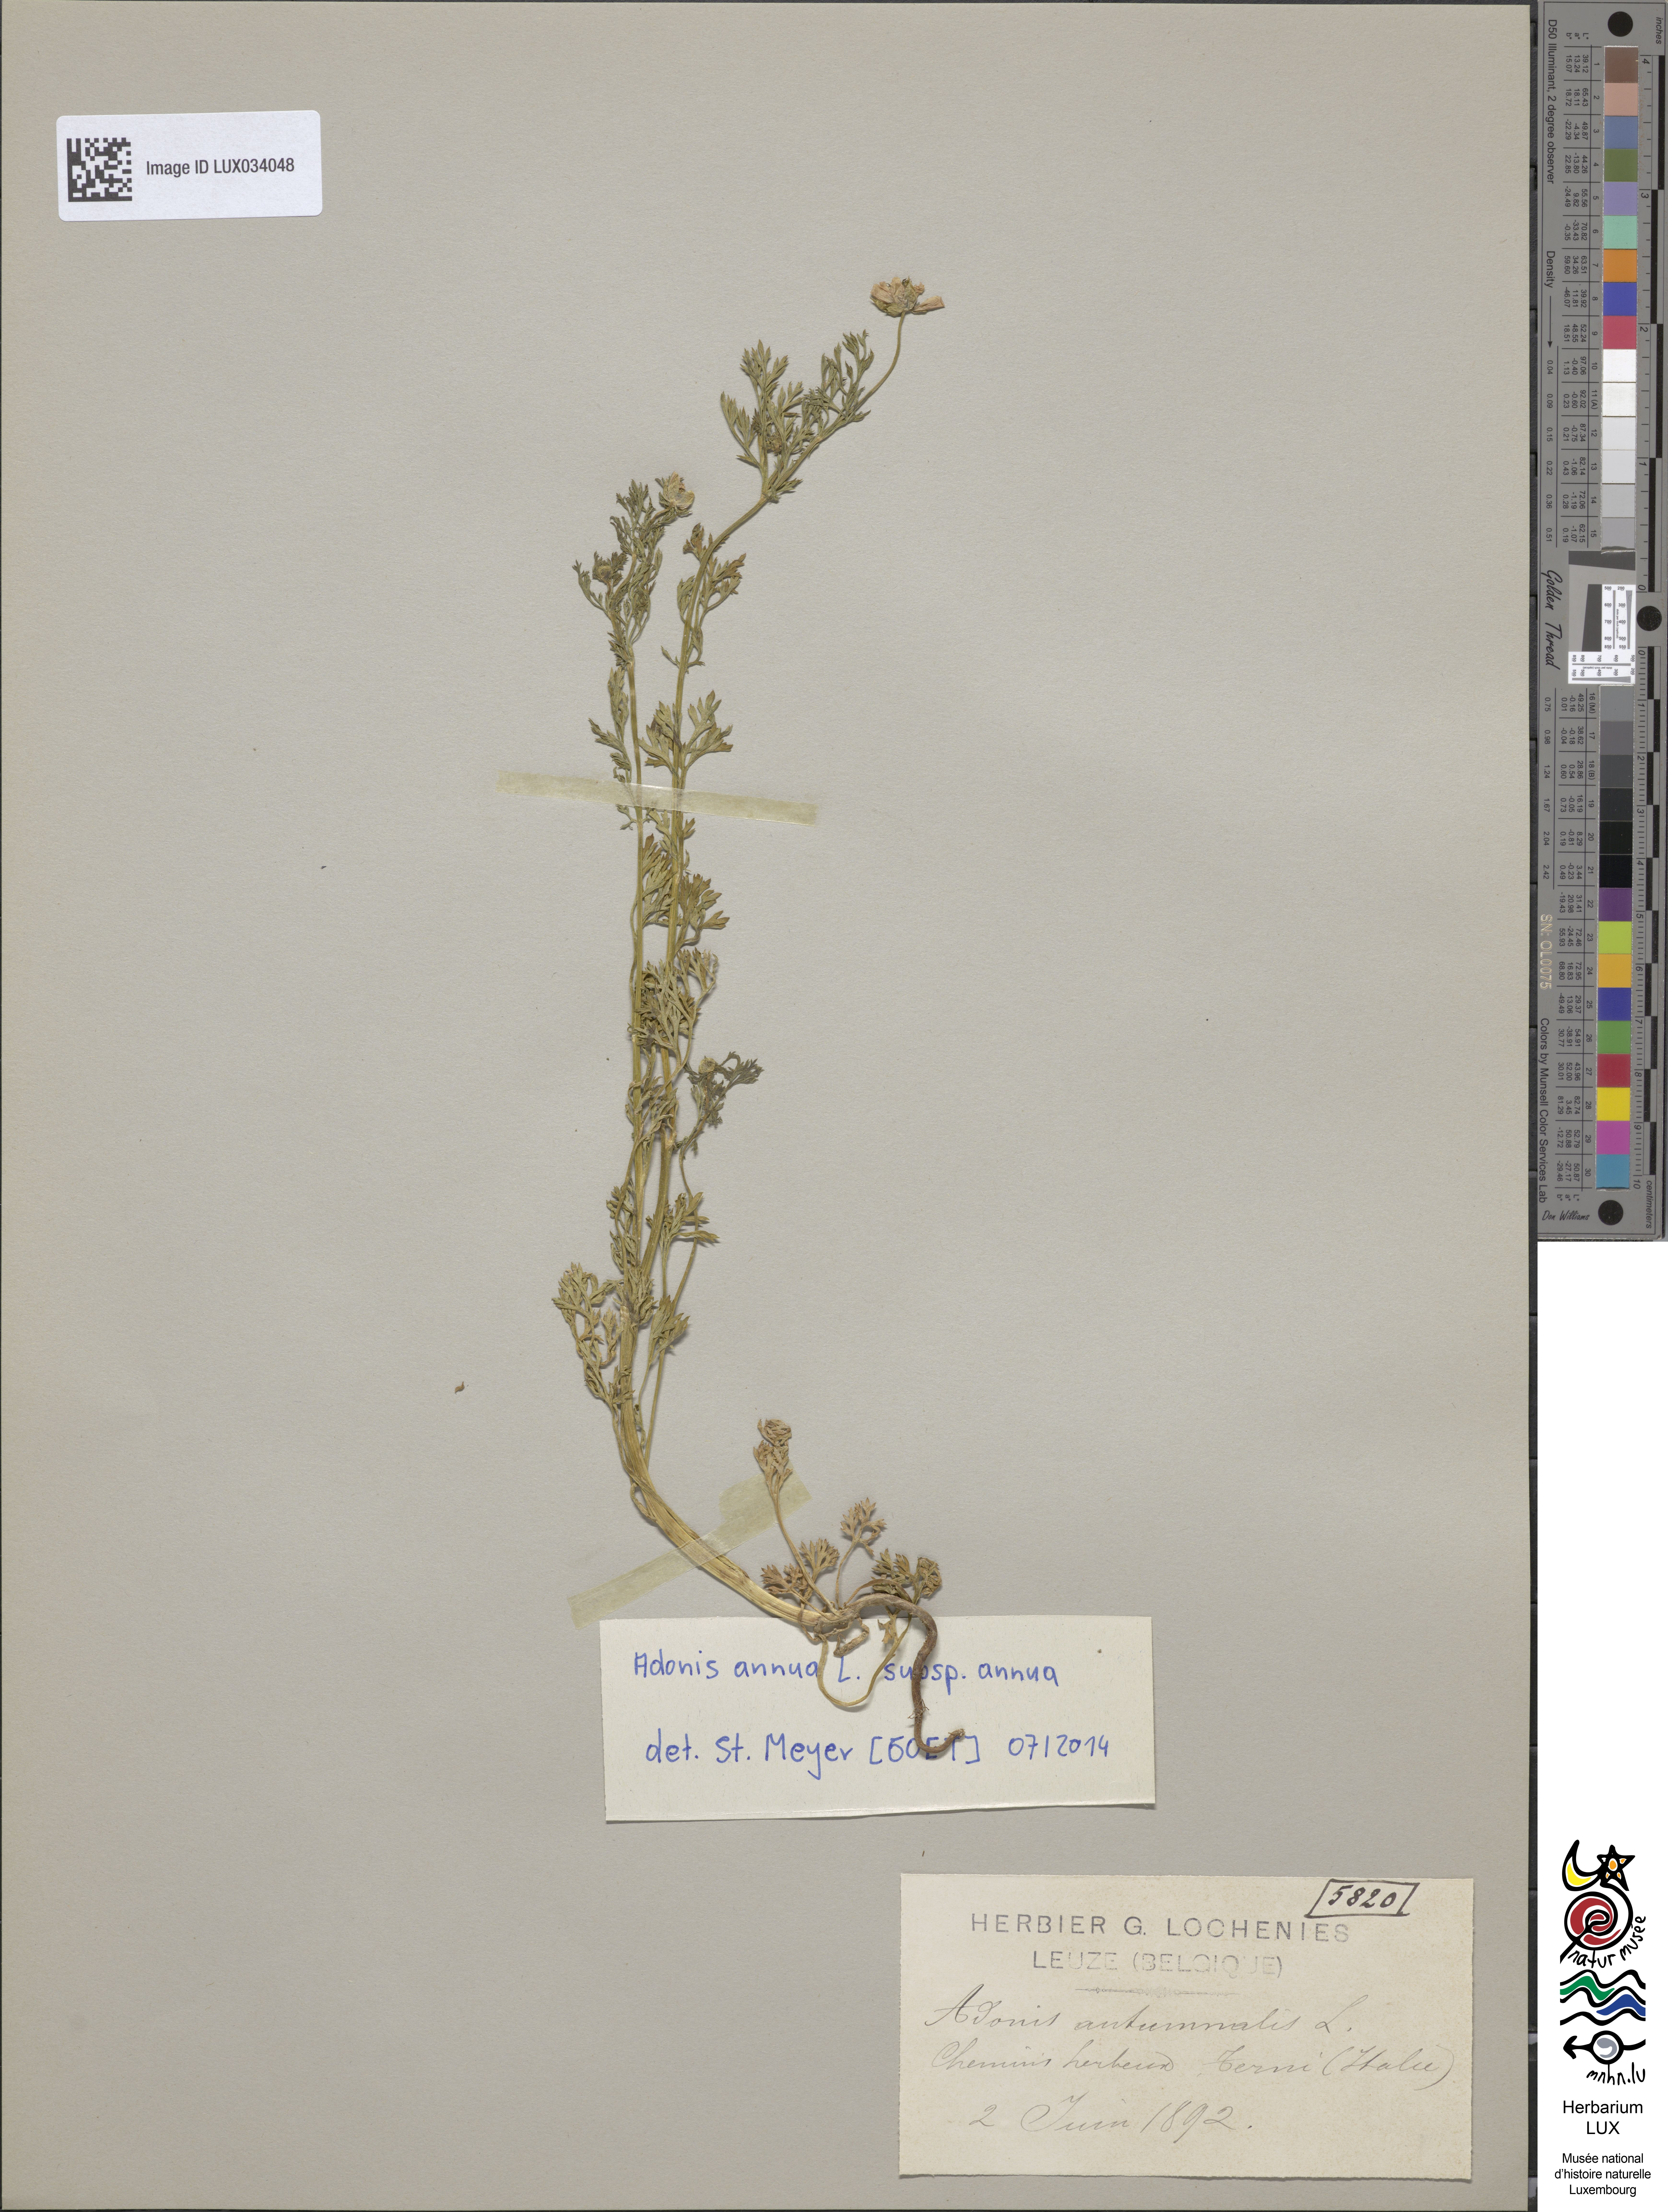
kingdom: Plantae
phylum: Tracheophyta
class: Magnoliopsida
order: Ranunculales
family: Ranunculaceae
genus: Adonis
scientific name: Adonis annua
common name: Pheasant's-eye
